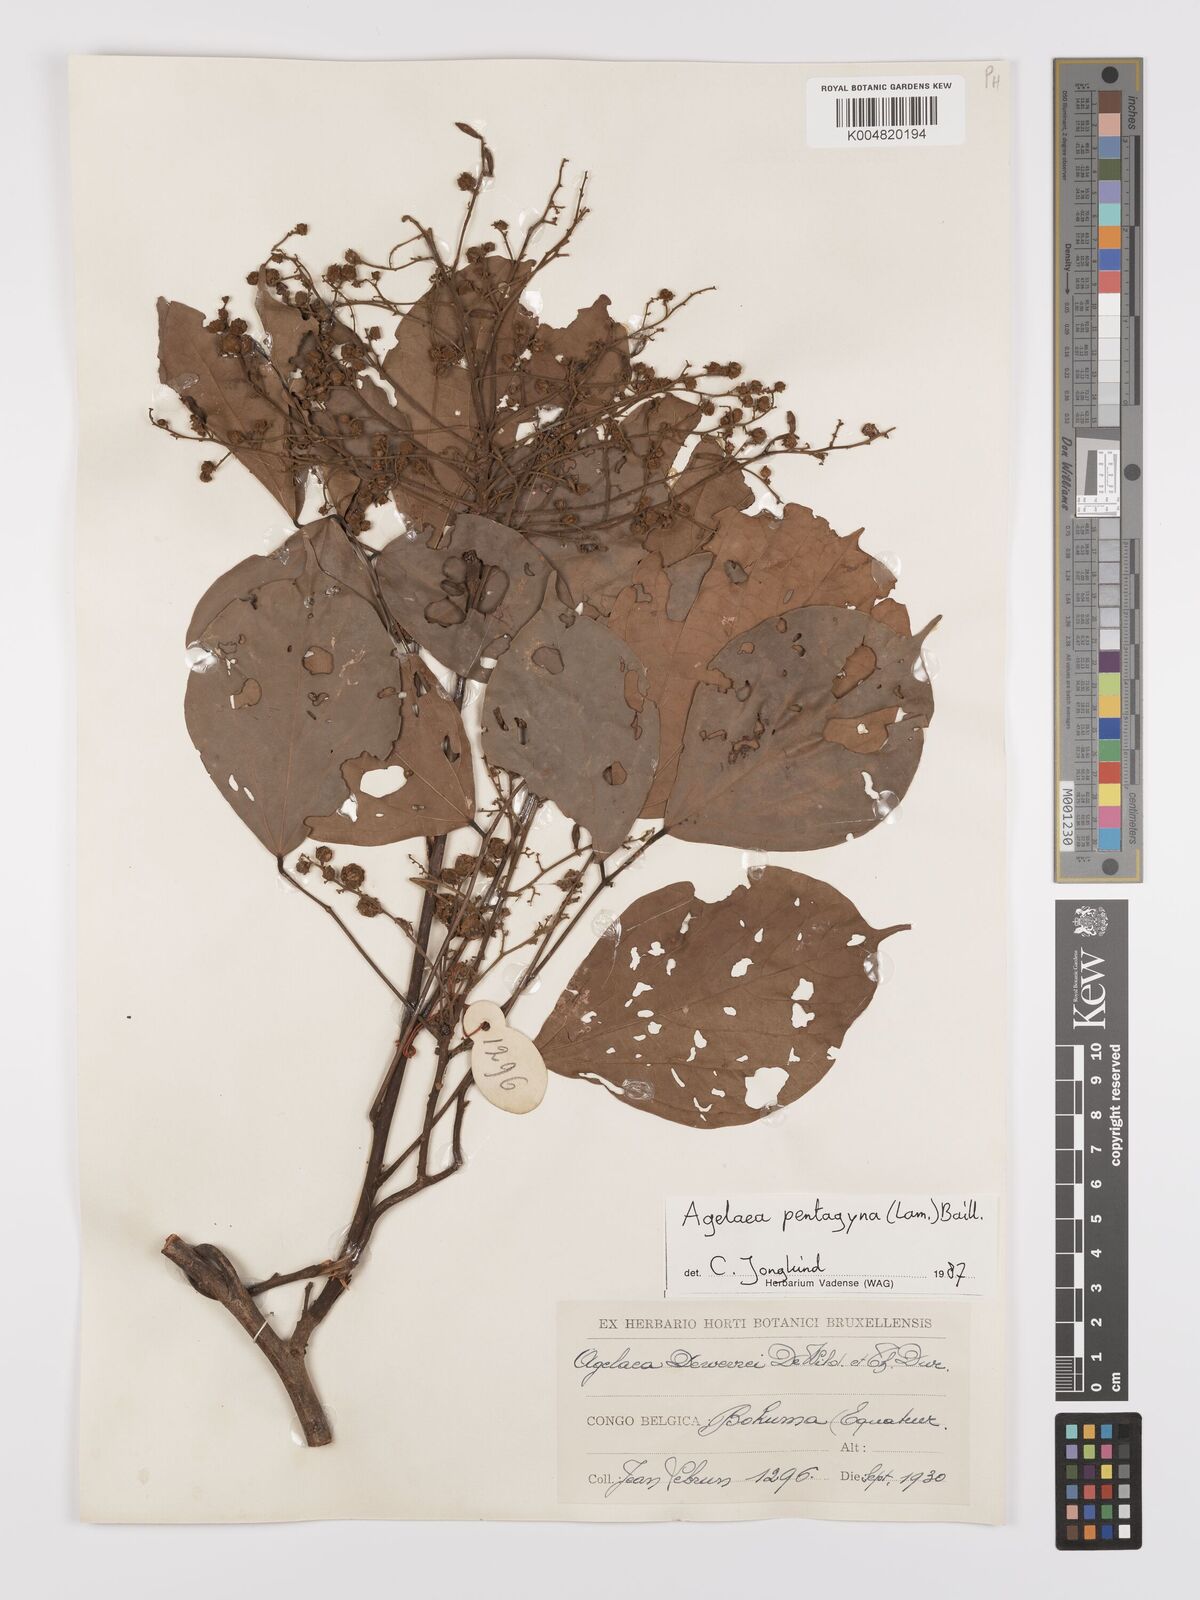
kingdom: Plantae
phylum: Tracheophyta
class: Magnoliopsida
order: Oxalidales
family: Connaraceae
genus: Agelaea
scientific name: Agelaea pentagyna
